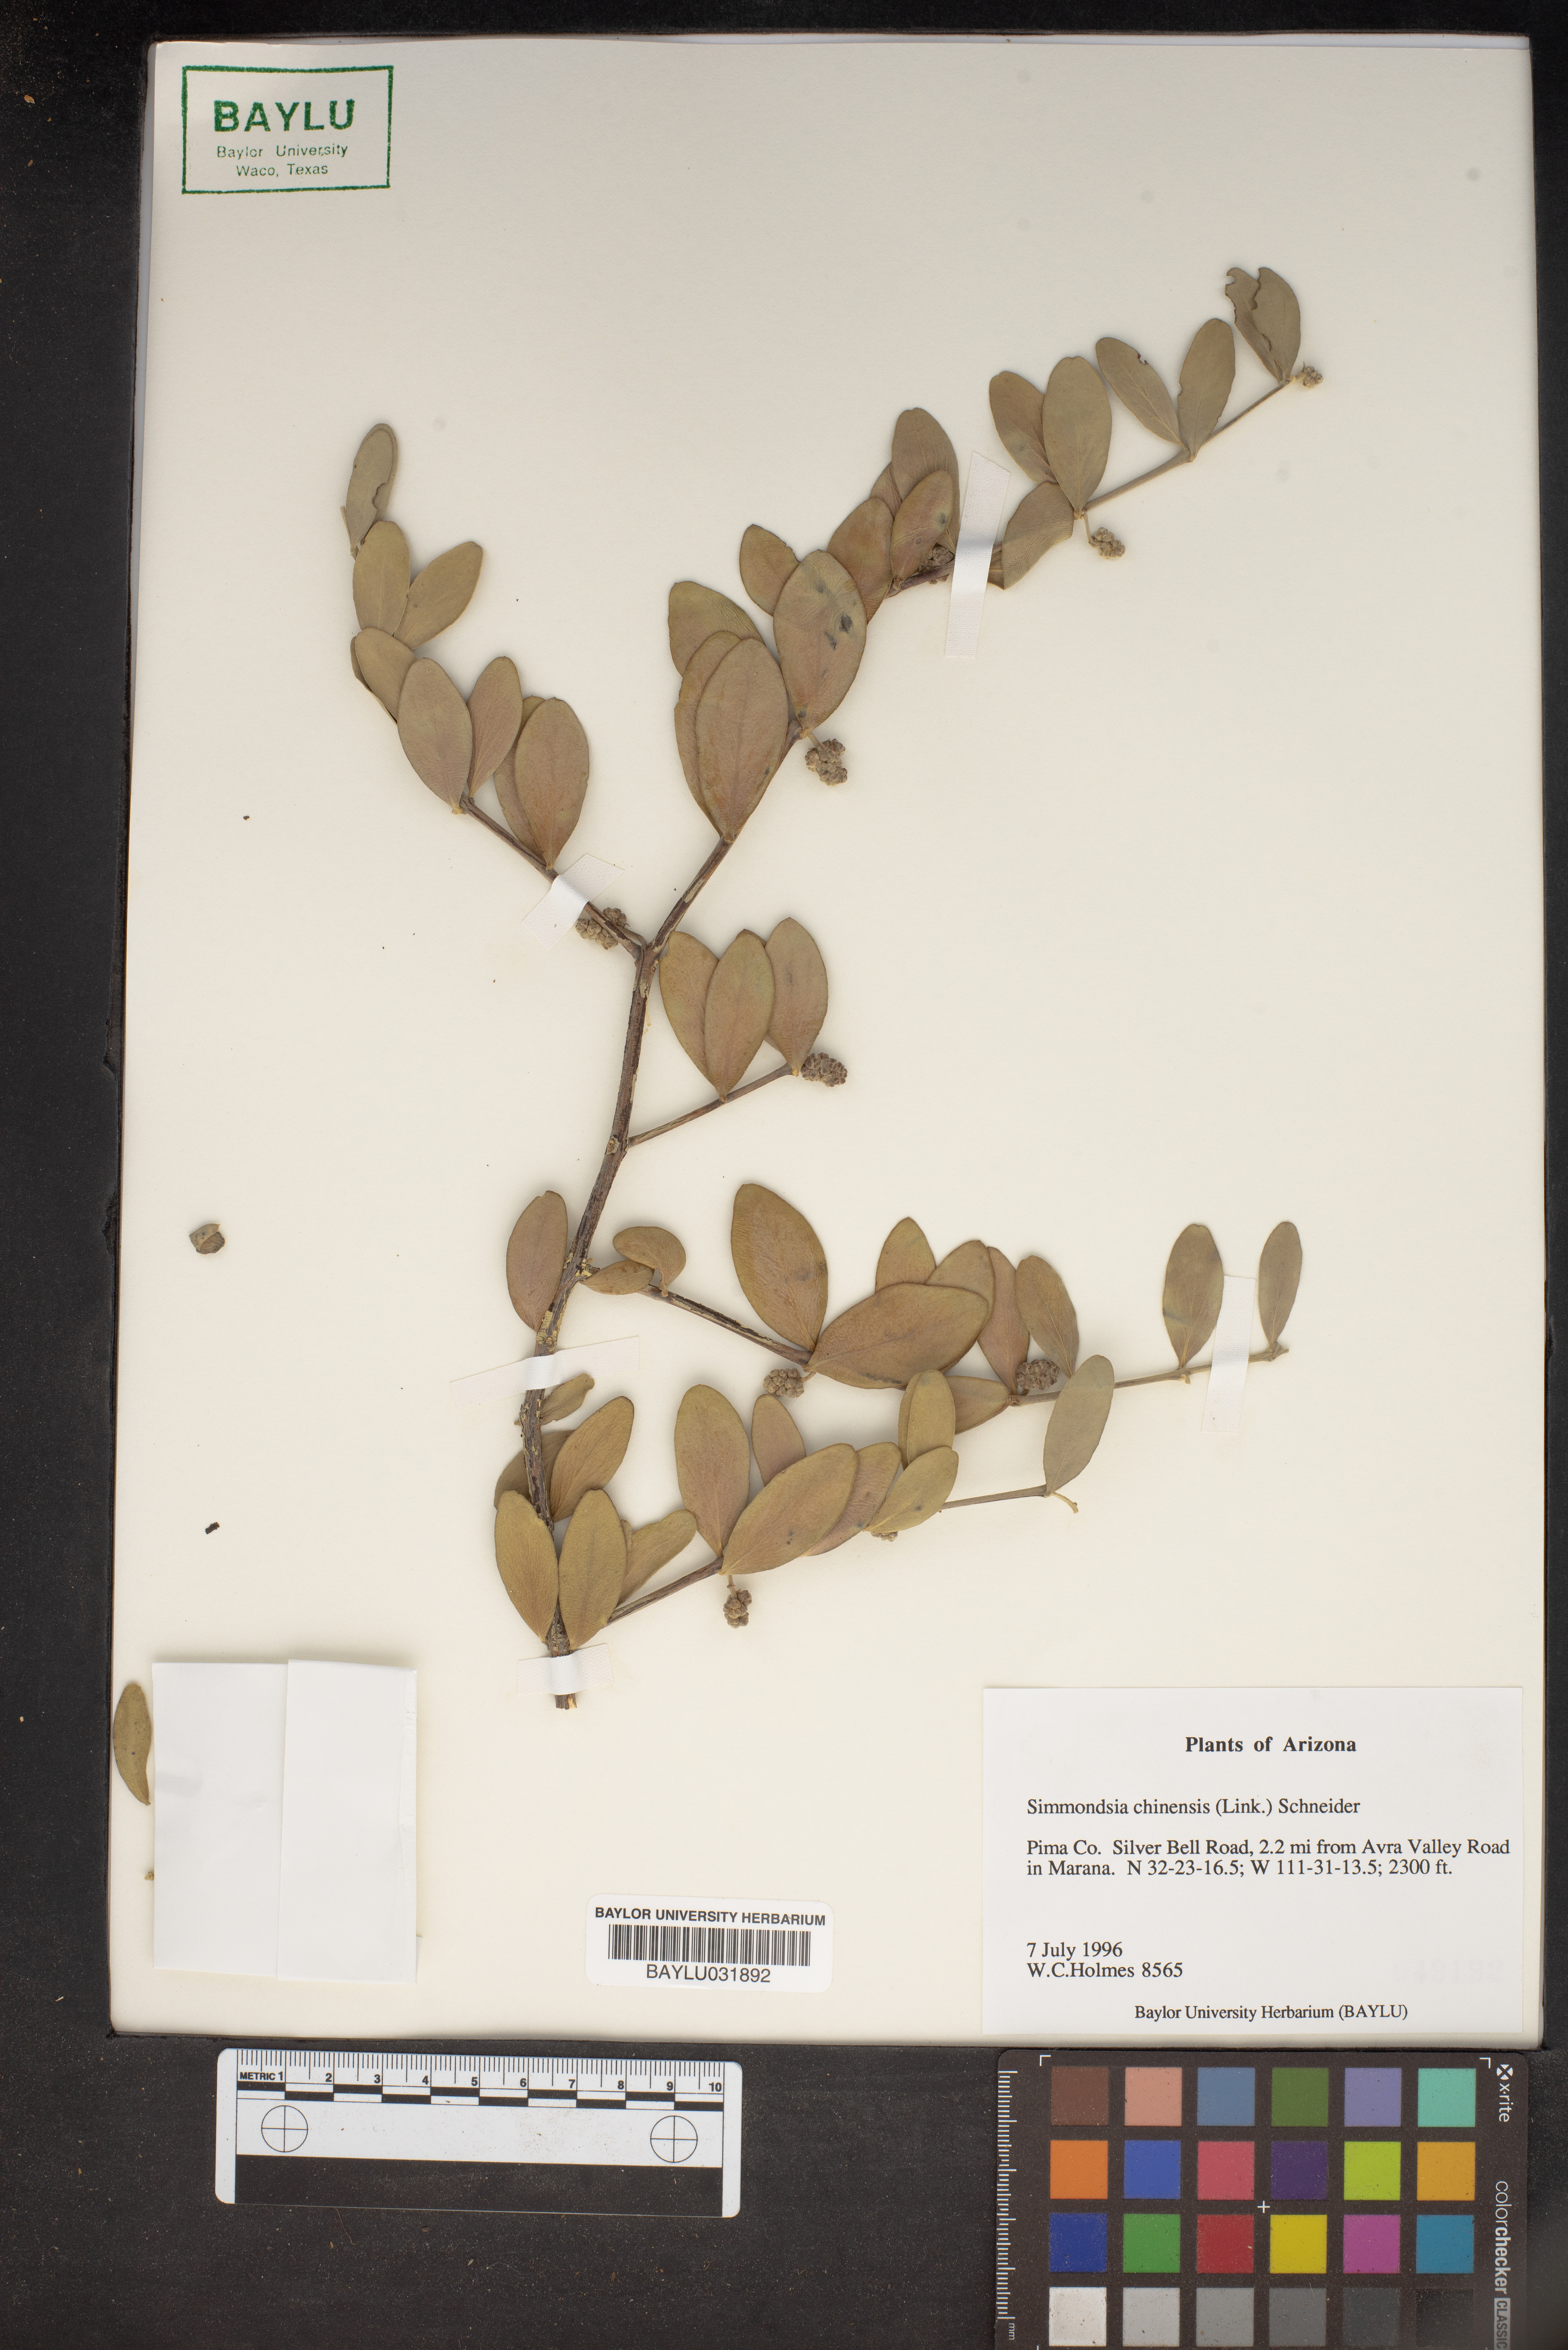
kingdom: Plantae
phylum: Tracheophyta
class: Magnoliopsida
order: Caryophyllales
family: Simmondsiaceae
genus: Simmondsia
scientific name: Simmondsia chinensis
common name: Jojoba
